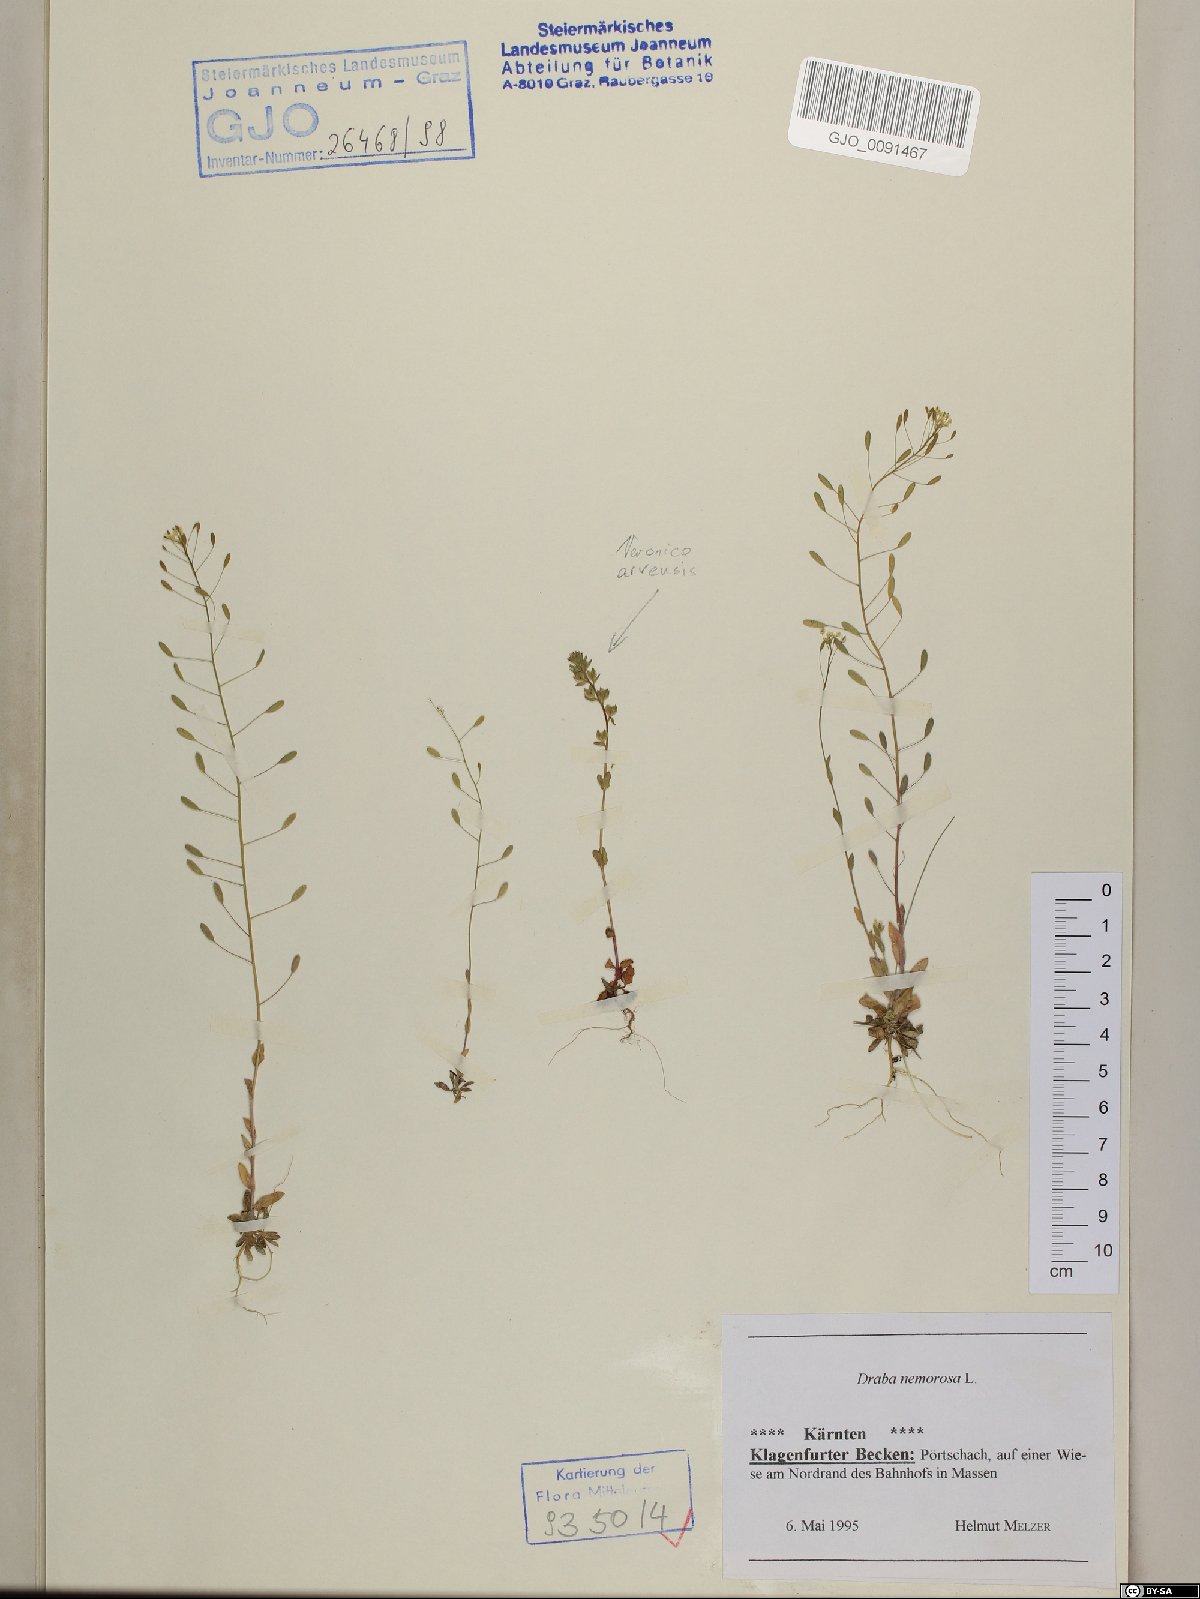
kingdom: Plantae
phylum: Tracheophyta
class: Magnoliopsida
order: Brassicales
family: Brassicaceae
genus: Draba
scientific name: Draba nemorosa
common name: Wood whitlow-grass
